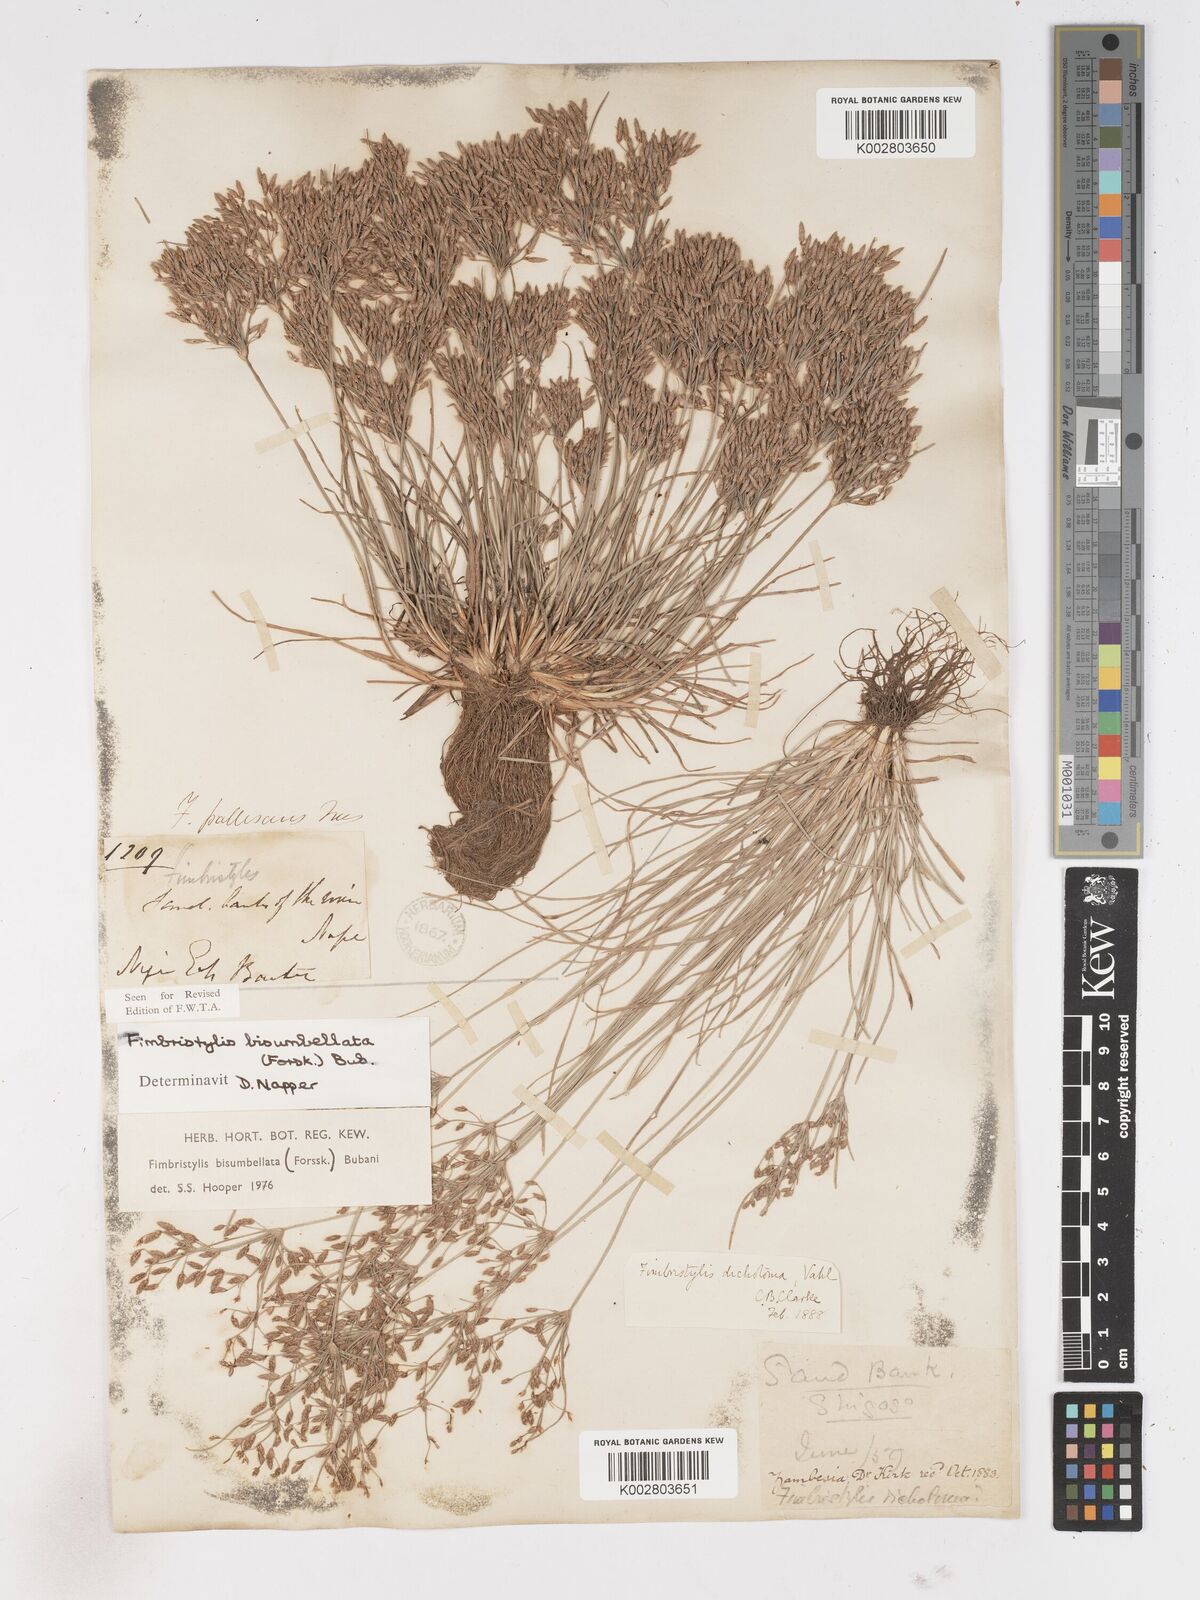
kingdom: Plantae
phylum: Tracheophyta
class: Liliopsida
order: Poales
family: Cyperaceae
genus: Fimbristylis
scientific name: Fimbristylis bisumbellata
